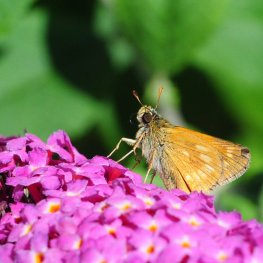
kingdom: Animalia
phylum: Arthropoda
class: Insecta
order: Lepidoptera
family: Hesperiidae
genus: Polites
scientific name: Polites
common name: Long Dash Skipper
